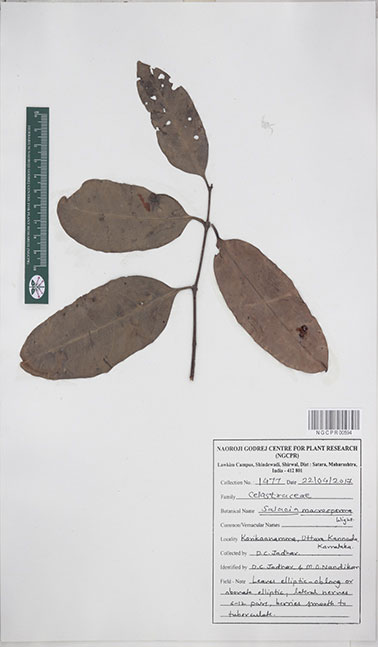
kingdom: Plantae
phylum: Tracheophyta
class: Magnoliopsida
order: Celastrales
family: Celastraceae
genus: Salacia
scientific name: Salacia macrosperma
